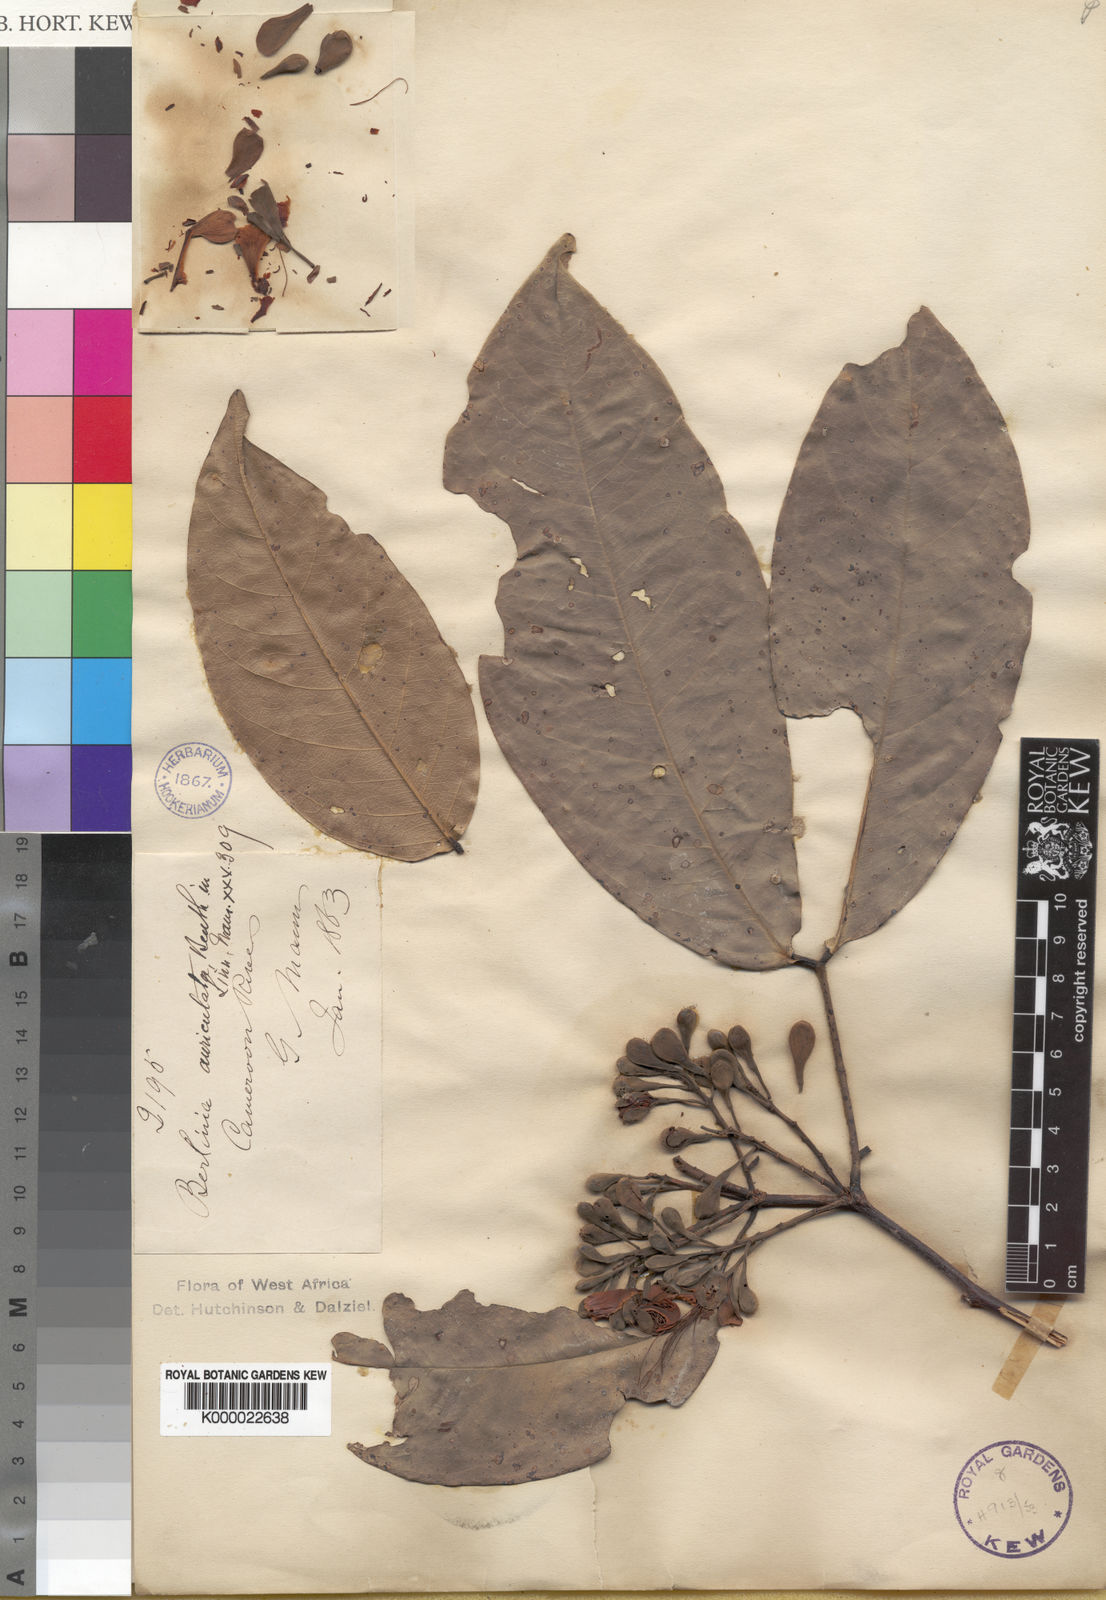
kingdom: Plantae
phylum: Tracheophyta
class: Magnoliopsida
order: Fabales
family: Fabaceae
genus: Berlinia
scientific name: Berlinia auriculata
